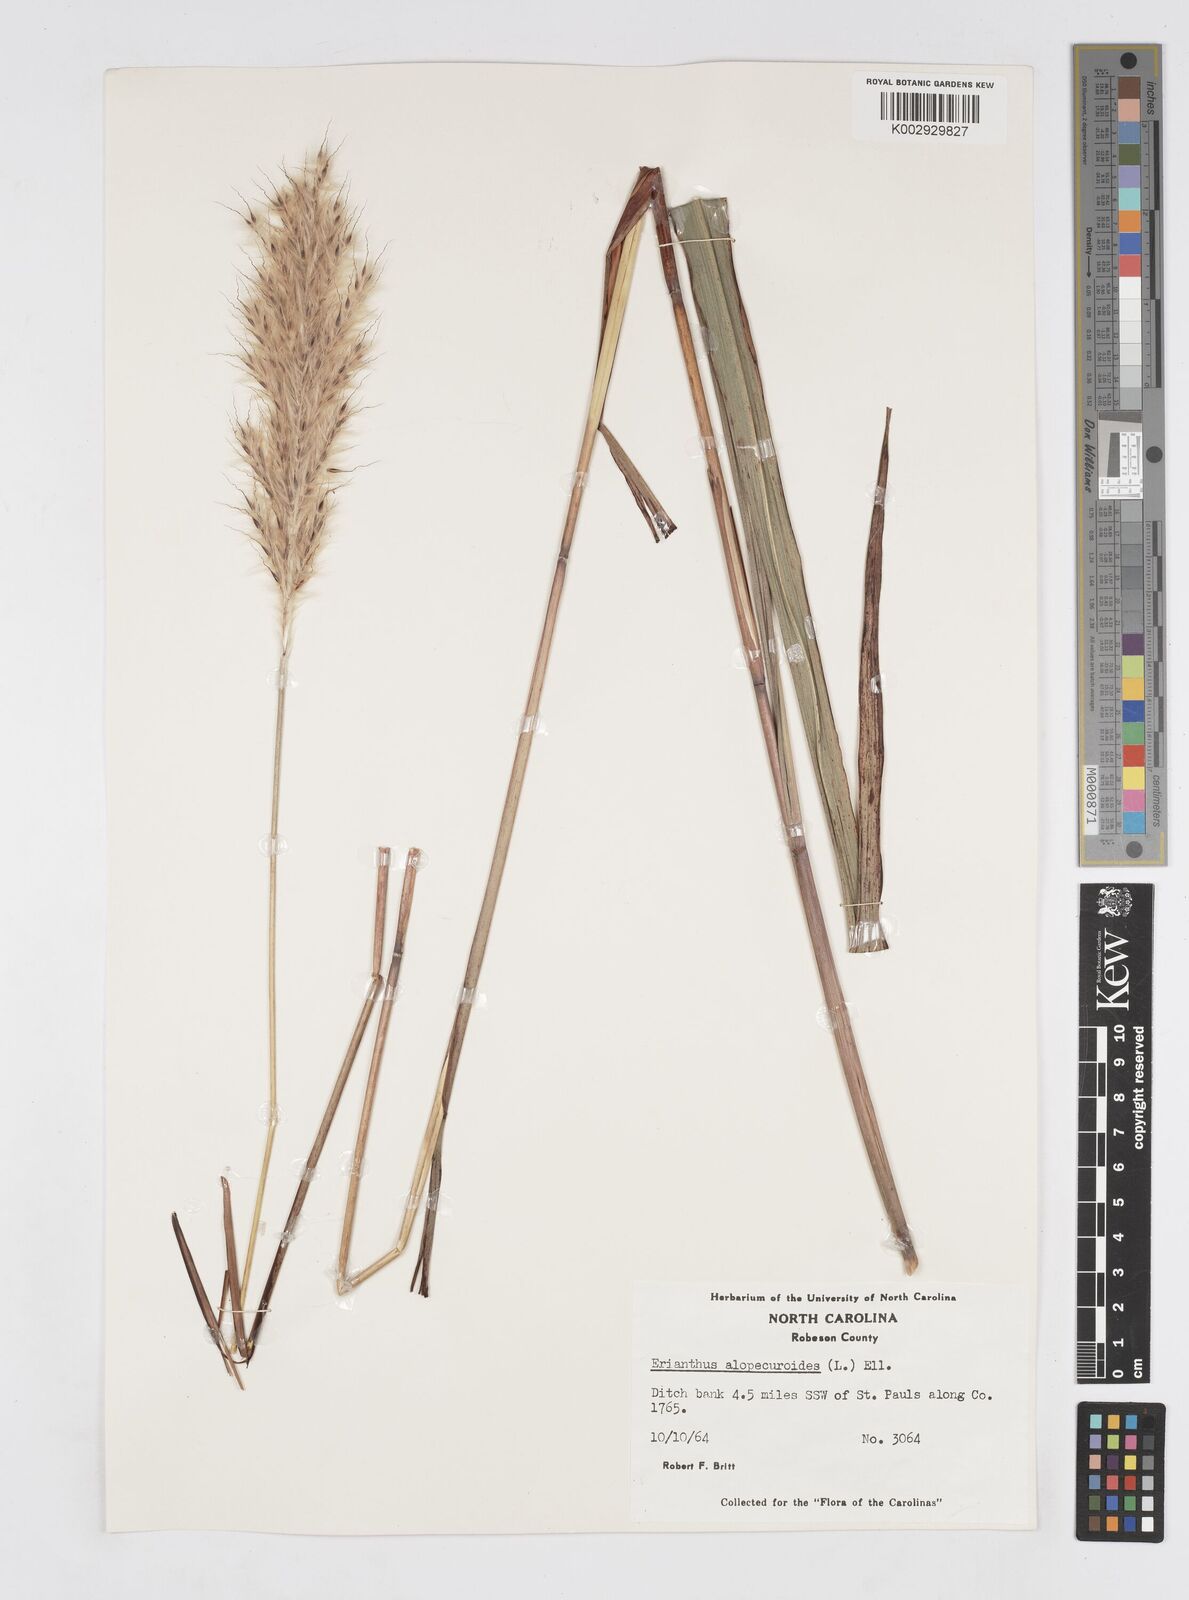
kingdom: Plantae
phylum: Tracheophyta
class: Liliopsida
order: Poales
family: Poaceae
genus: Erianthus
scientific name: Erianthus alopecuroides
